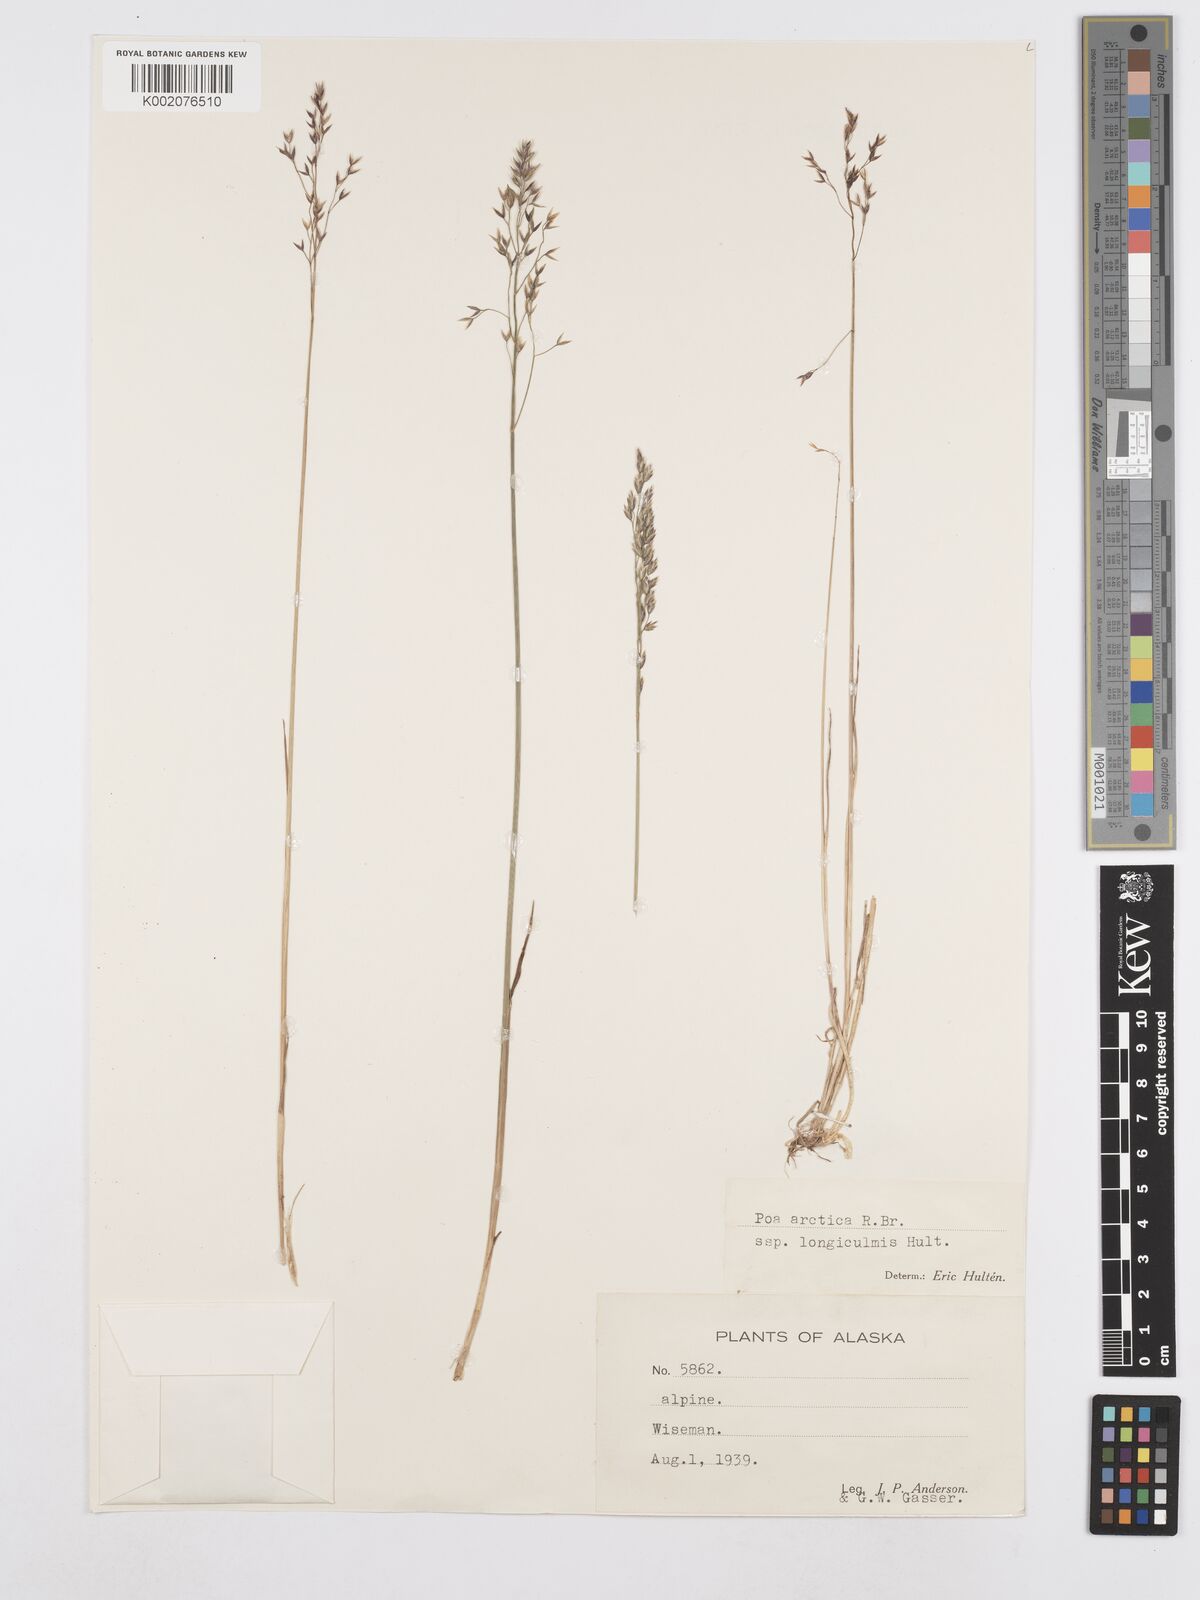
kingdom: Plantae
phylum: Tracheophyta
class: Liliopsida
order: Poales
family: Poaceae
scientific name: Poaceae
